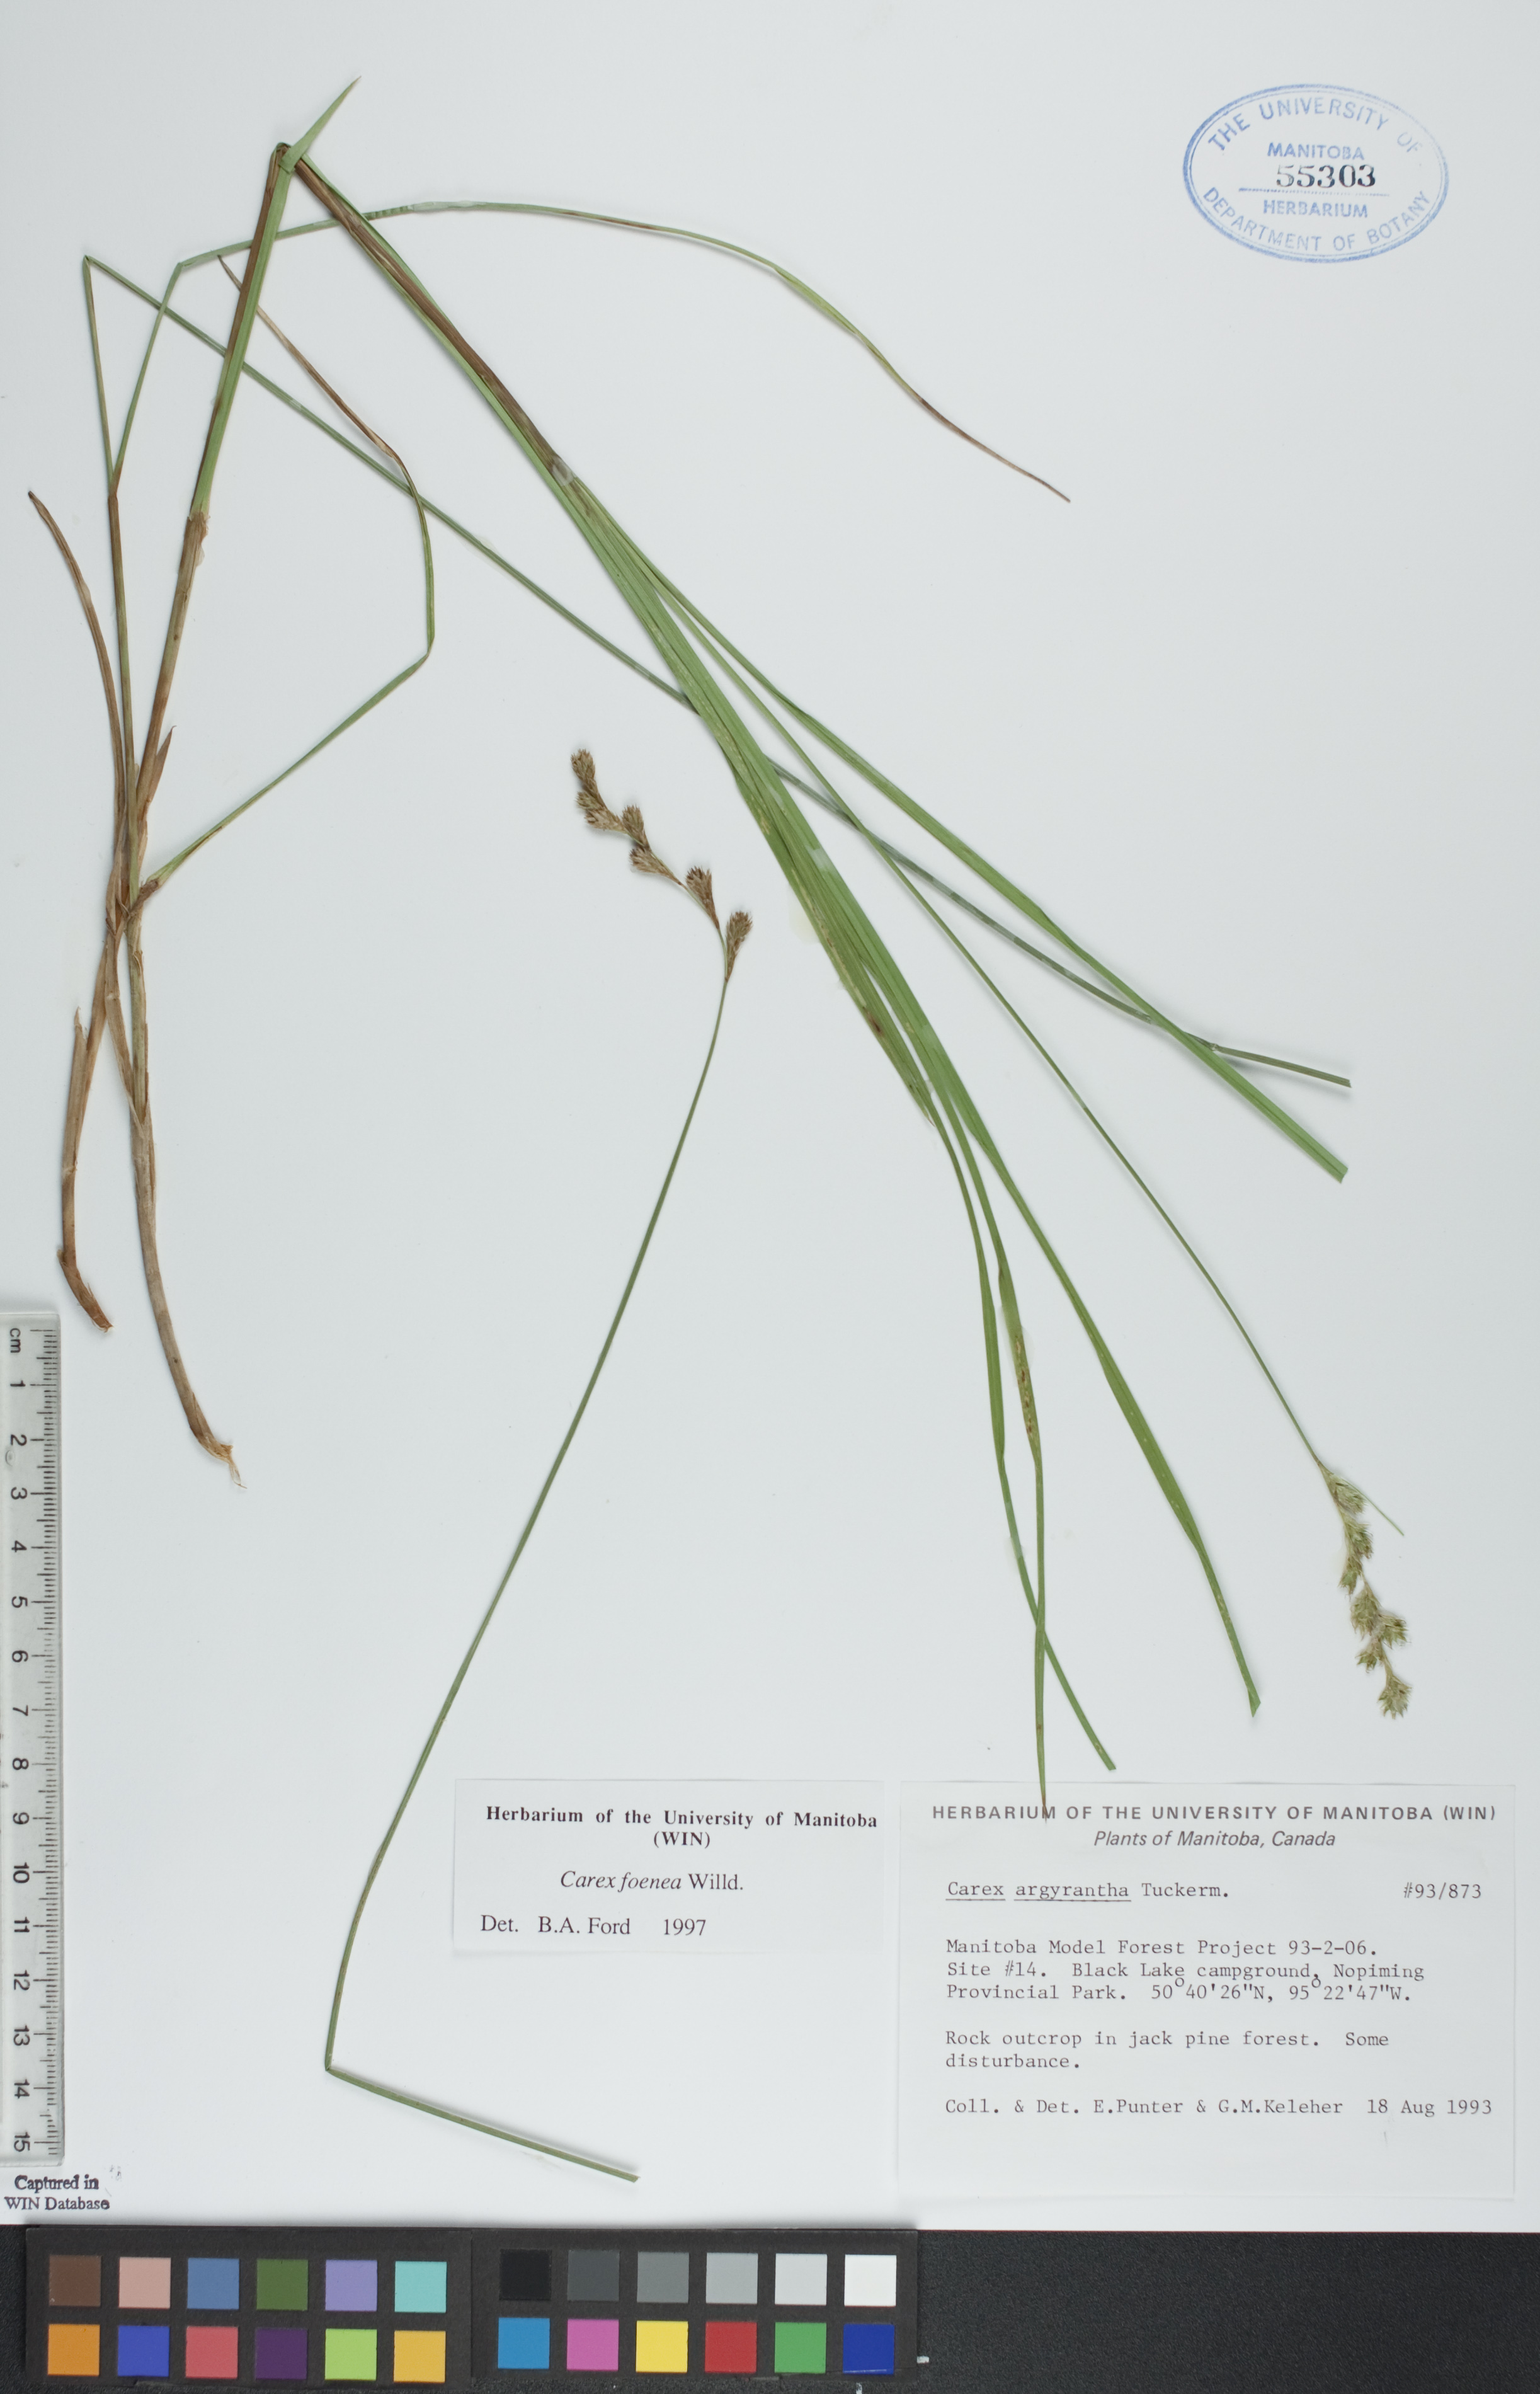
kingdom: Plantae
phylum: Tracheophyta
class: Liliopsida
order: Poales
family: Cyperaceae
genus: Carex
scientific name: Carex foenea
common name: Bronze sedge
